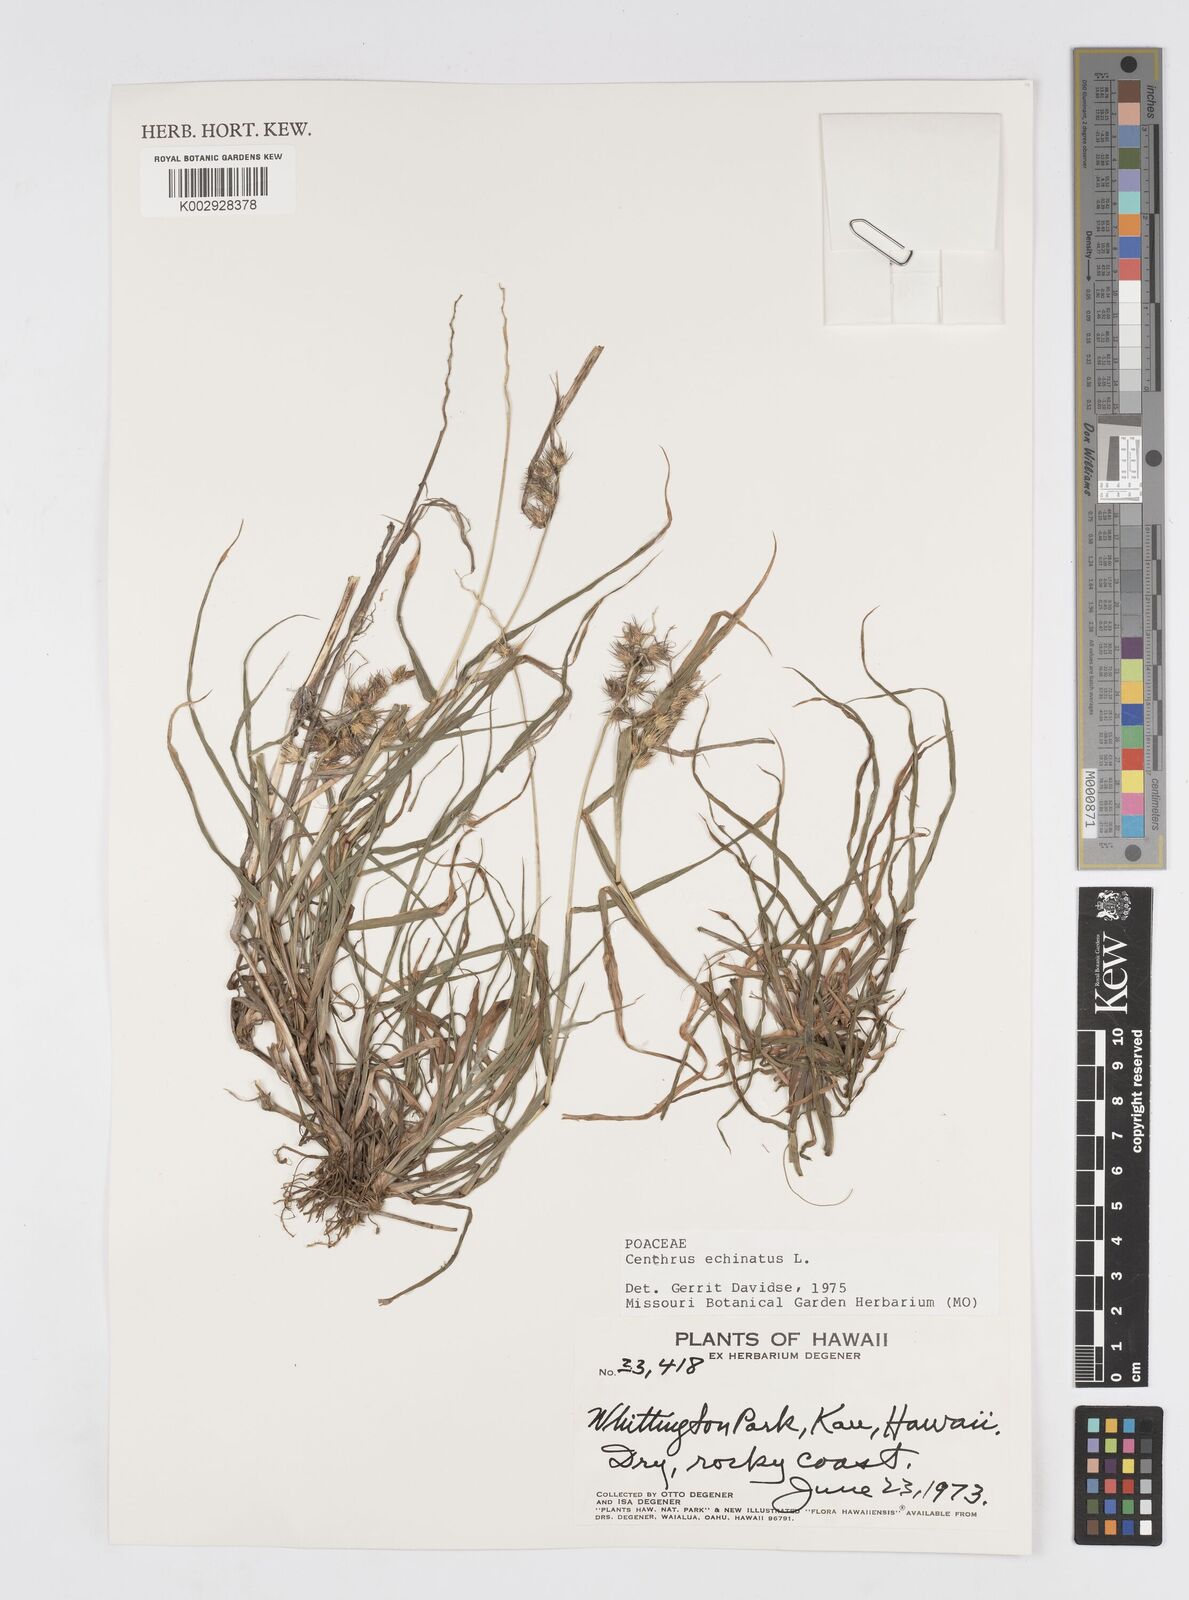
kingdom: Plantae
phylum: Tracheophyta
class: Liliopsida
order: Poales
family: Poaceae
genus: Cenchrus
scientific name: Cenchrus echinatus
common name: Southern sandbur
